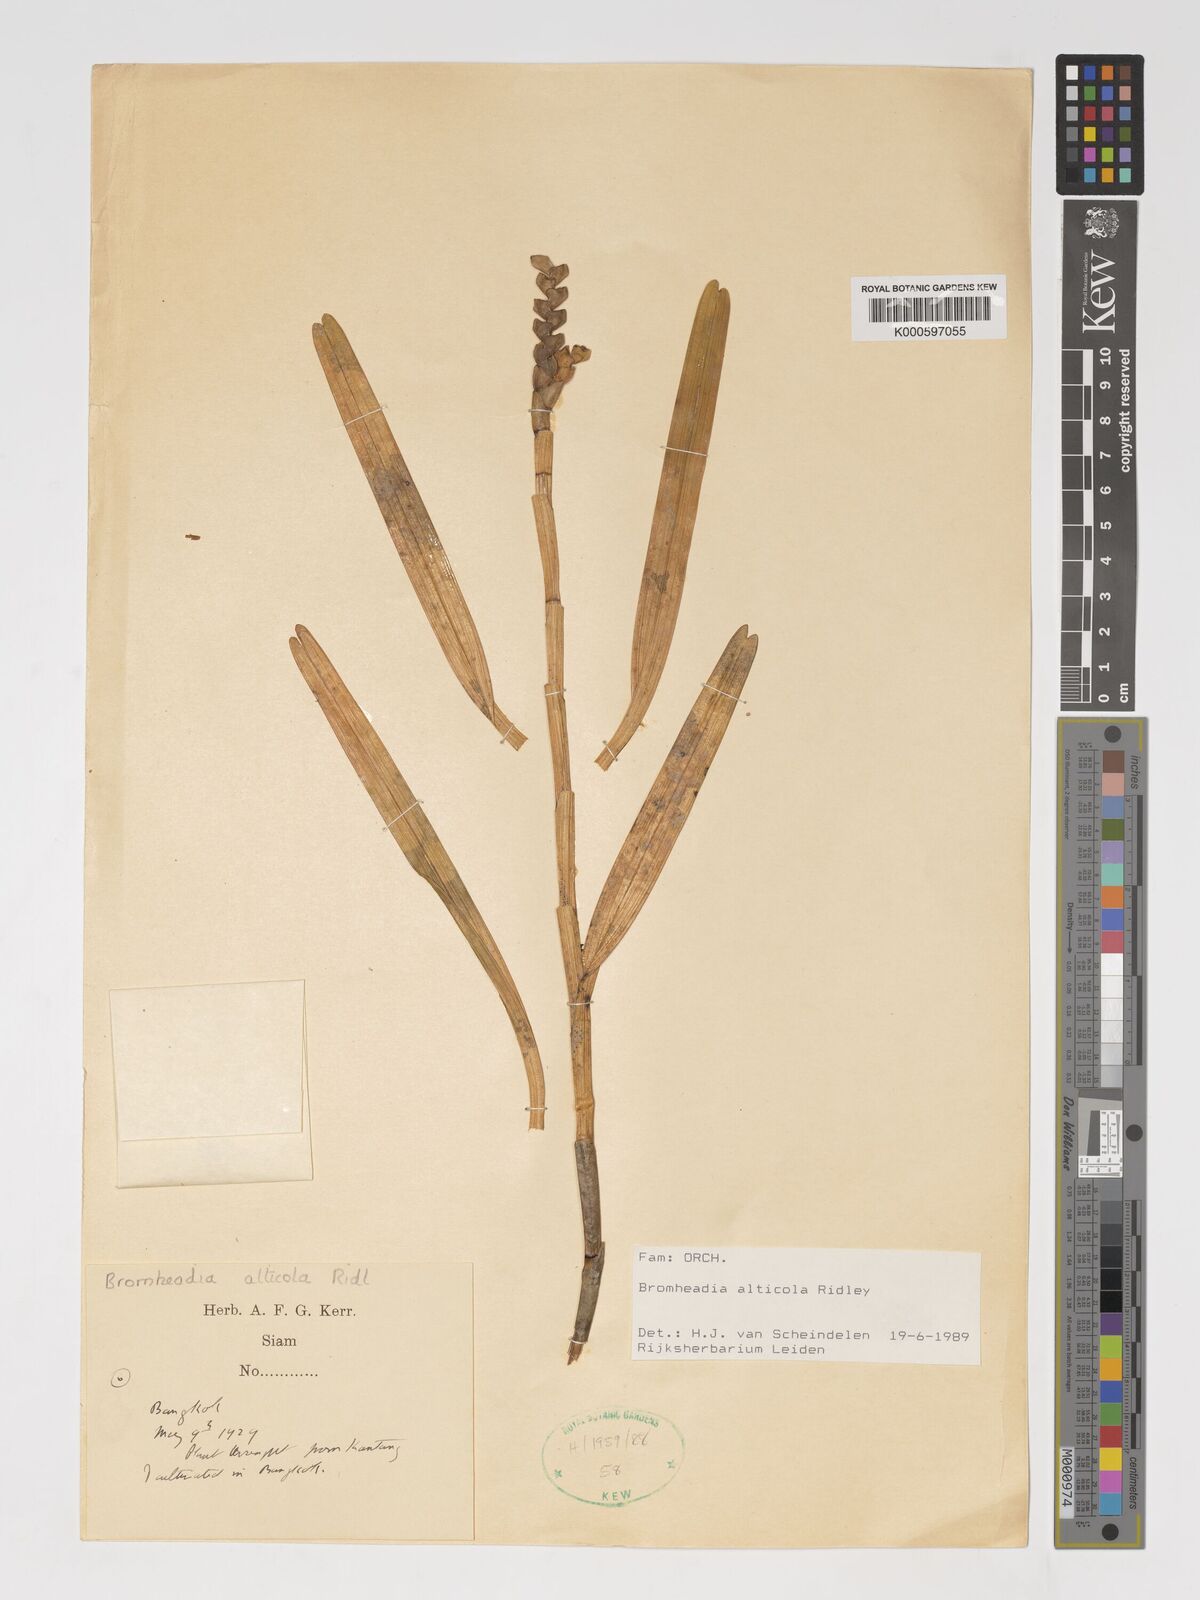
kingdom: Plantae
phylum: Tracheophyta
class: Liliopsida
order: Asparagales
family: Orchidaceae
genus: Bromheadia
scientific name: Bromheadia alticola
